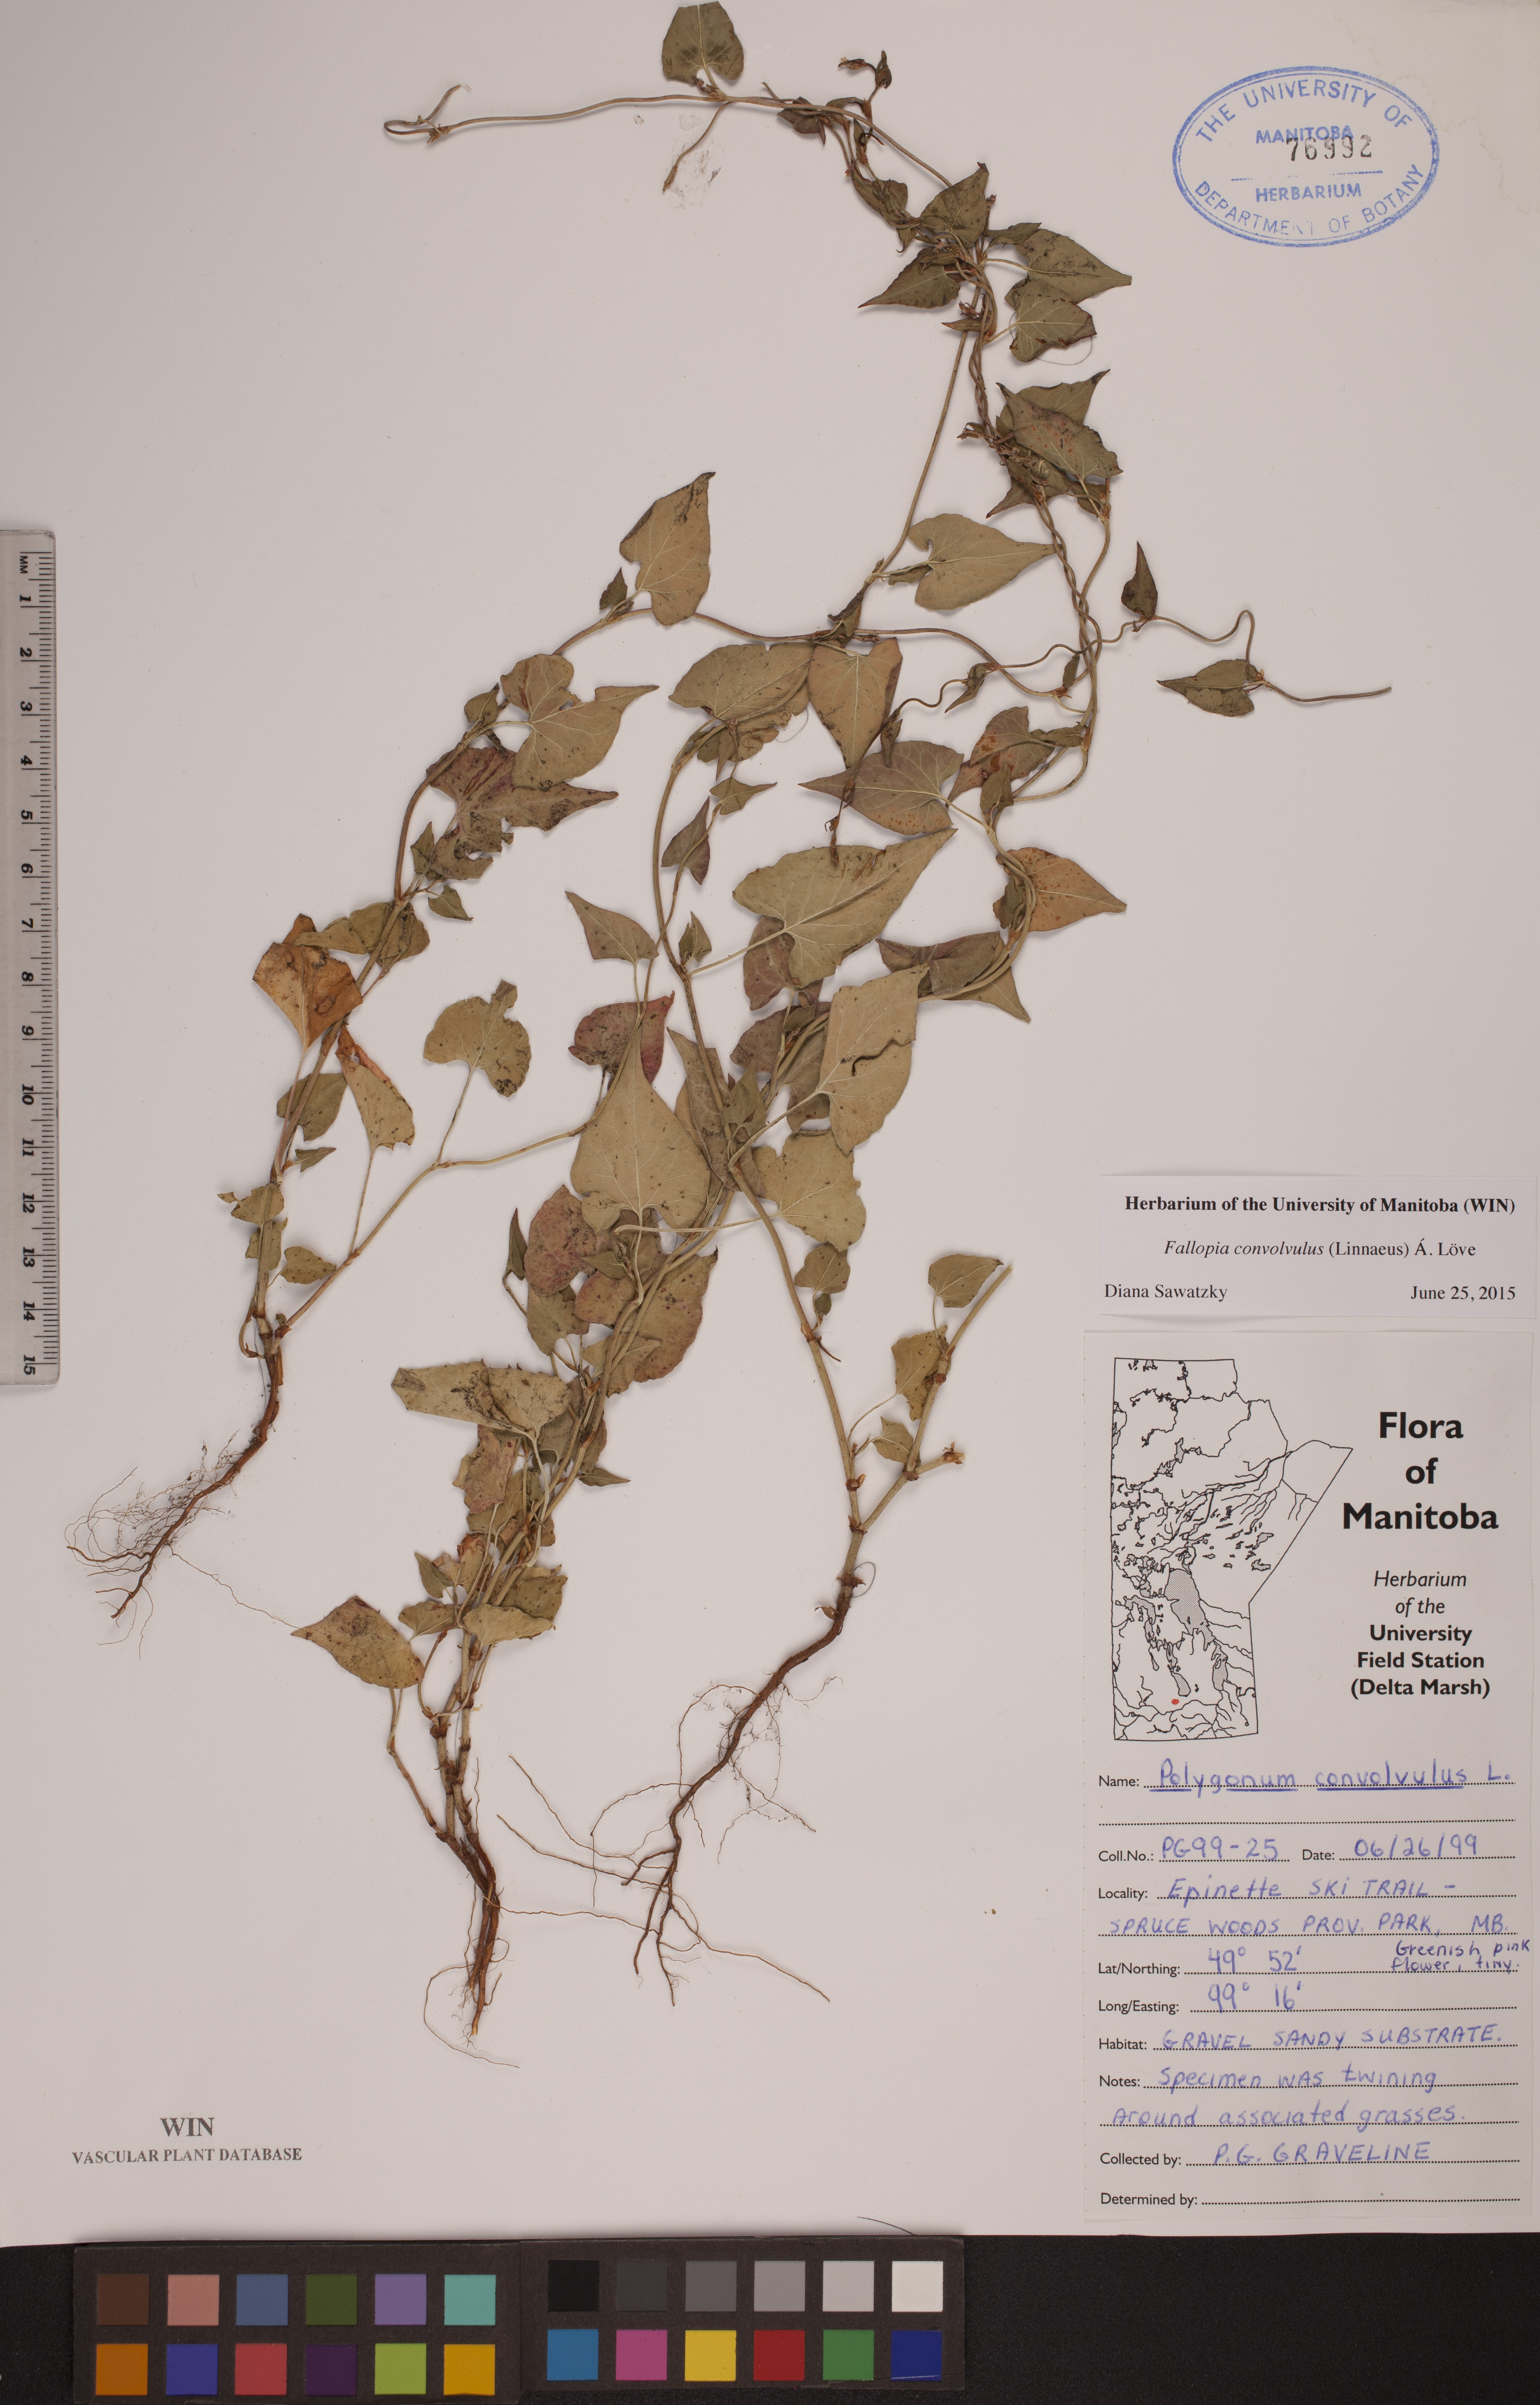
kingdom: Plantae
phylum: Tracheophyta
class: Magnoliopsida
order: Caryophyllales
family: Polygonaceae
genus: Fallopia
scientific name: Fallopia convolvulus
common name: Black bindweed
